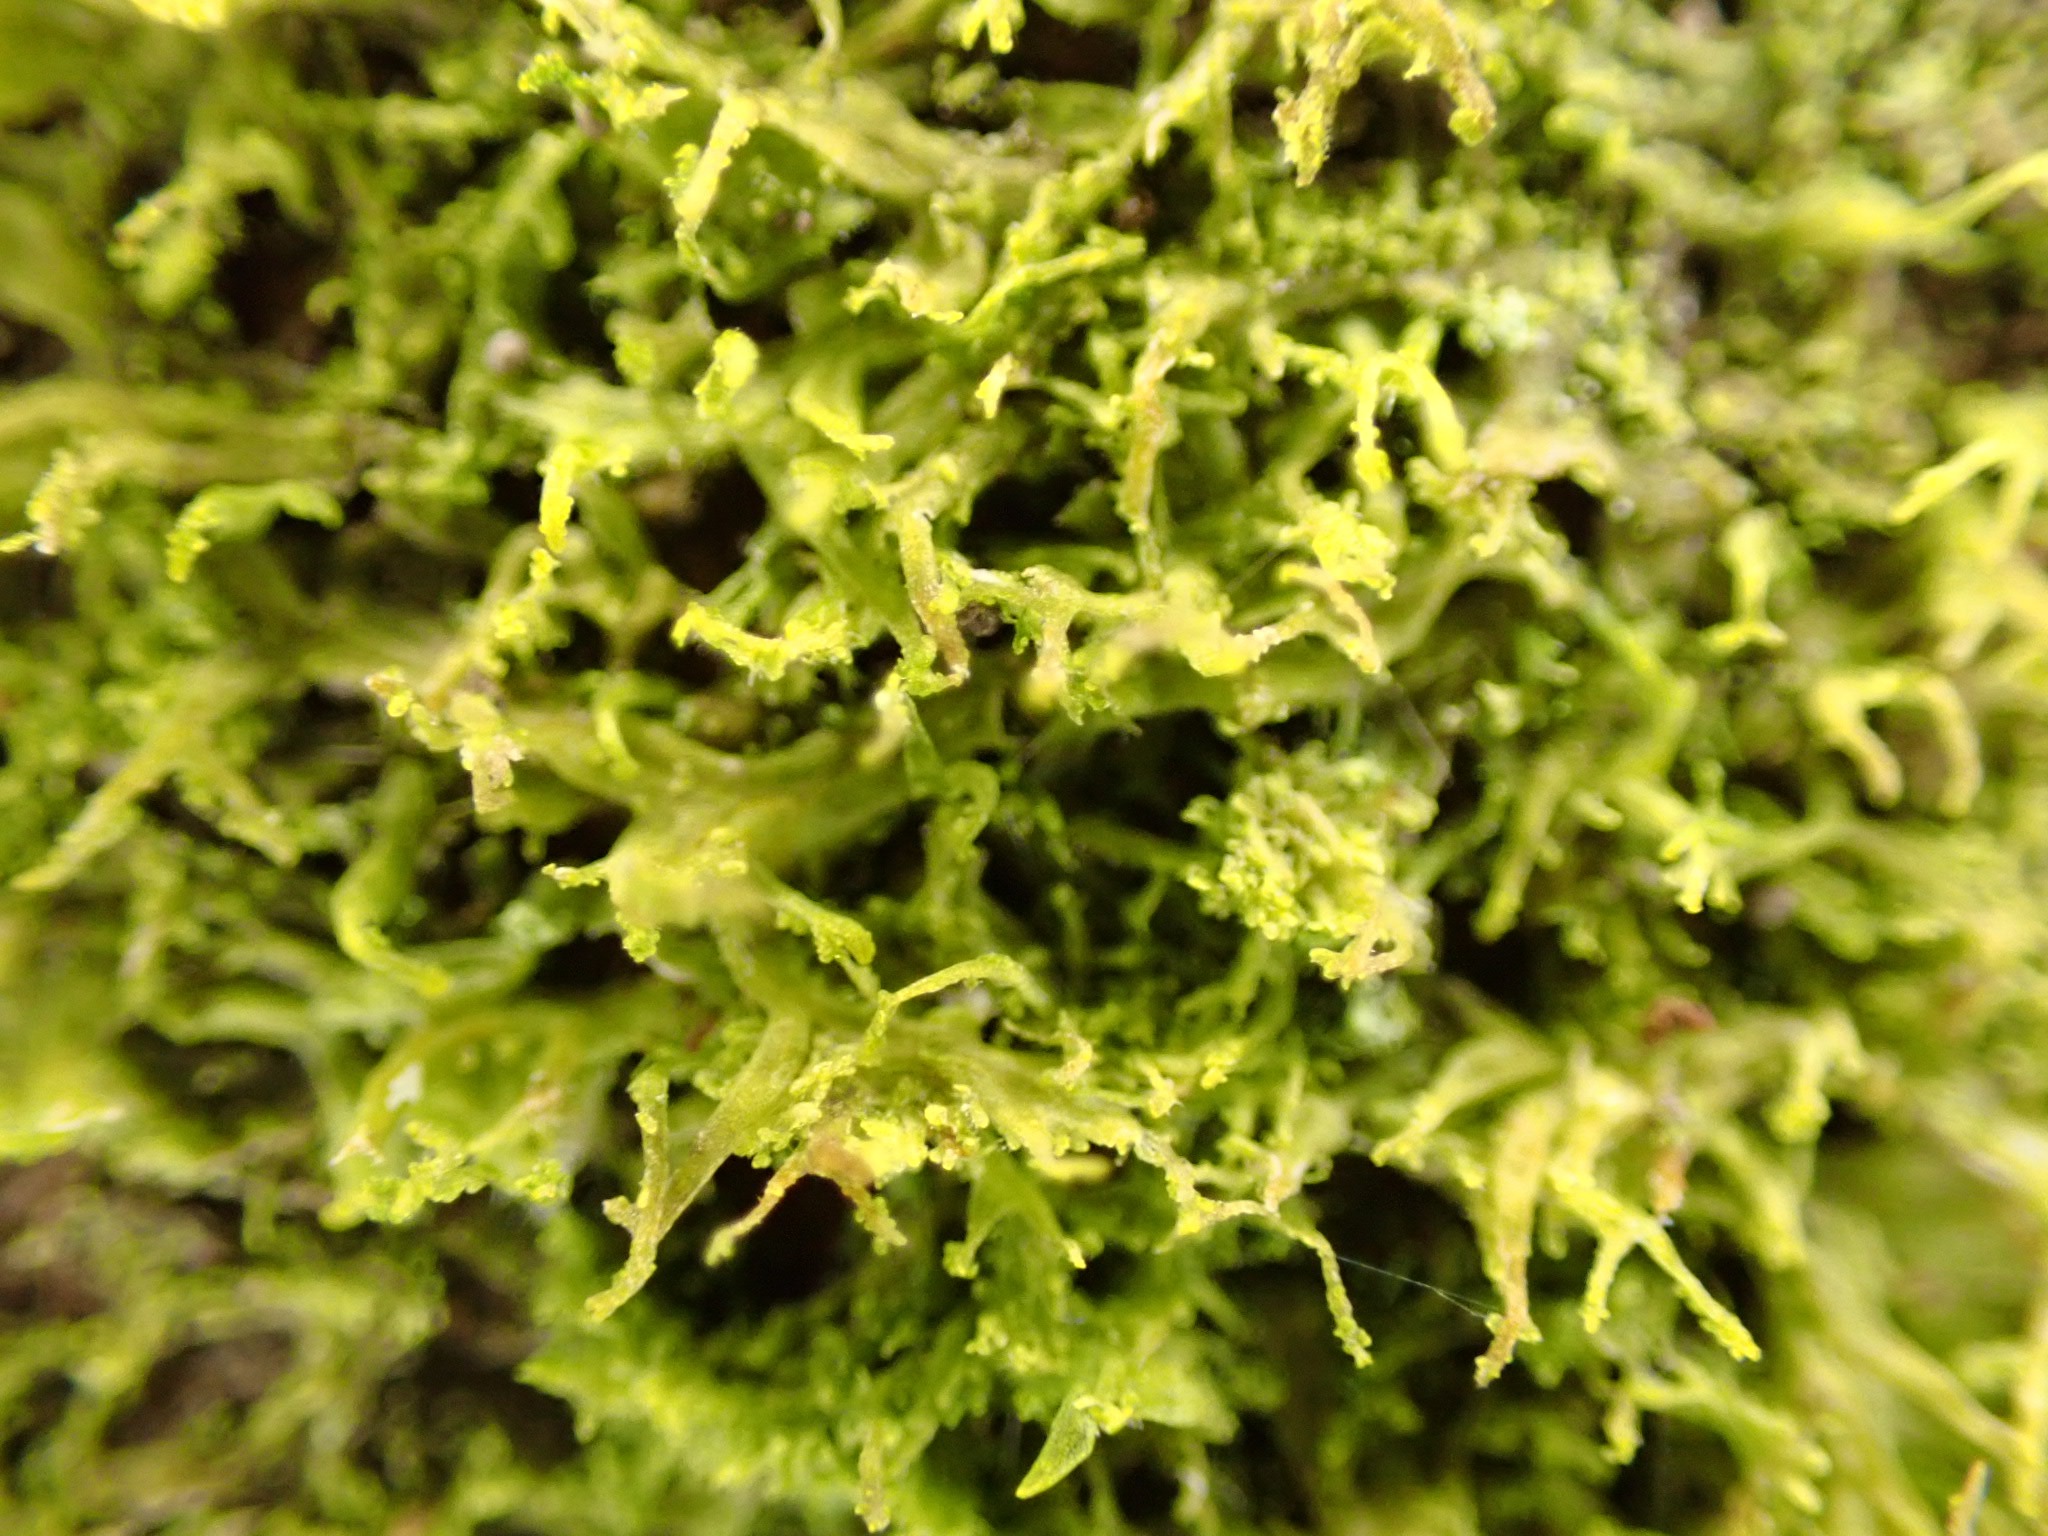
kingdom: Plantae
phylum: Marchantiophyta
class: Jungermanniopsida
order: Metzgeriales
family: Aneuraceae
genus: Riccardia
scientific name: Riccardia palmata
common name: Blågrøn gaffelløv
